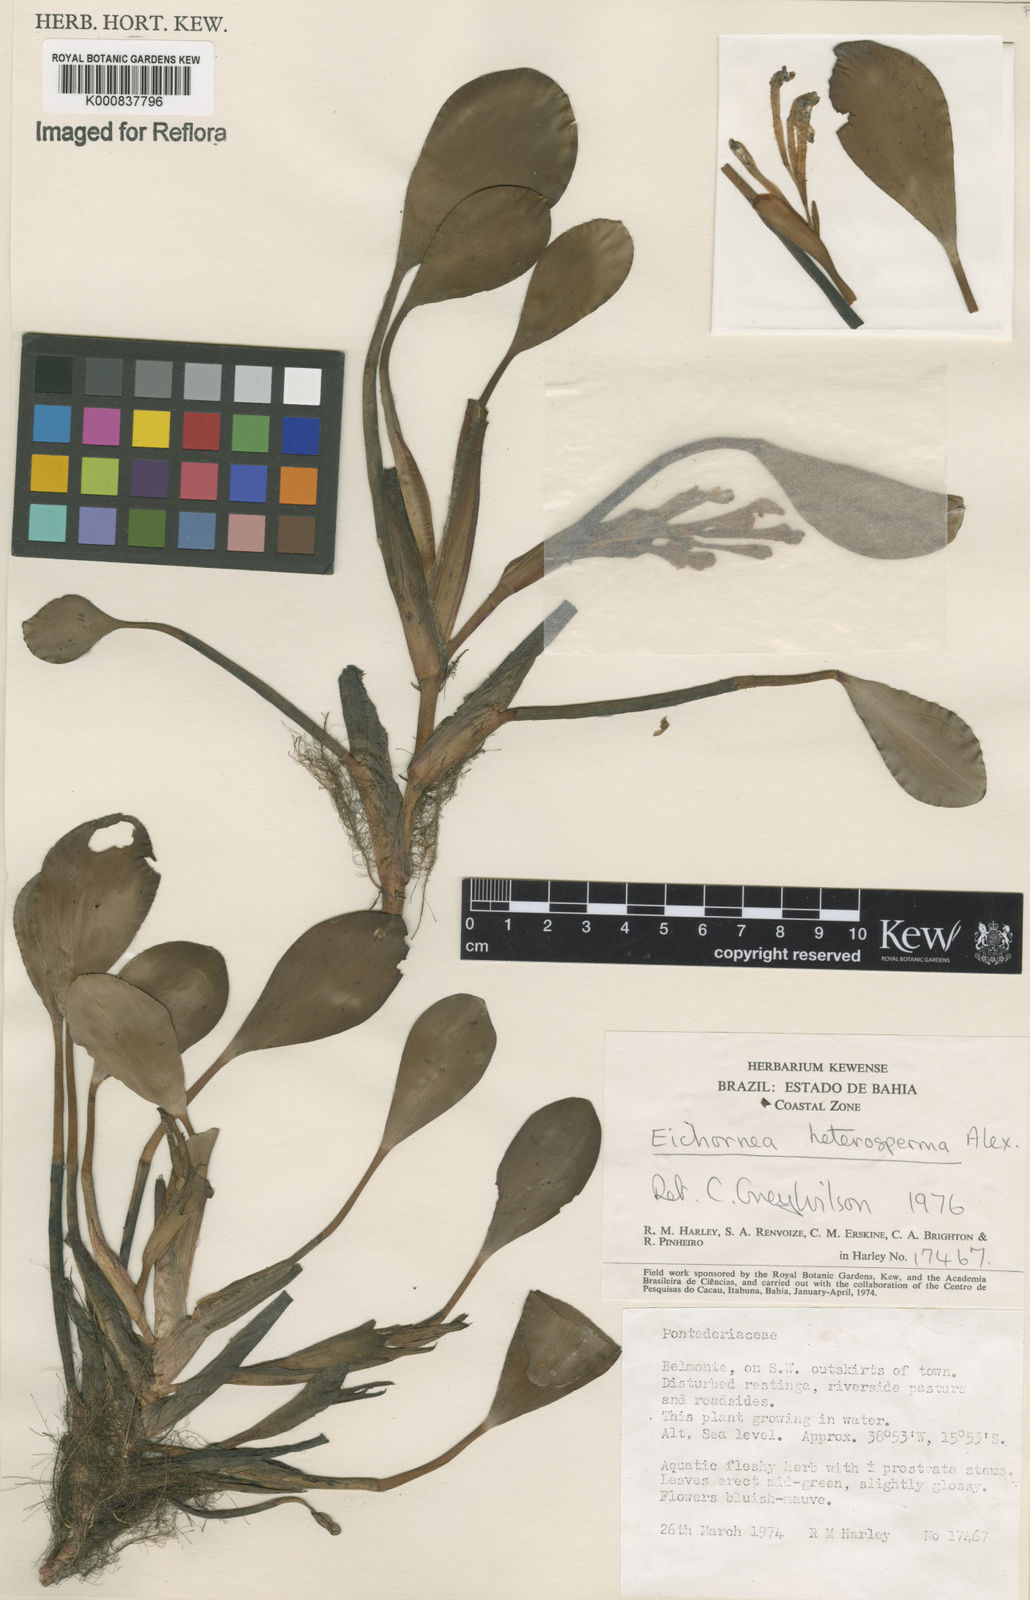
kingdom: Plantae
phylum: Tracheophyta
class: Liliopsida
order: Commelinales
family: Pontederiaceae
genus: Pontederia
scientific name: Pontederia heterosperma
